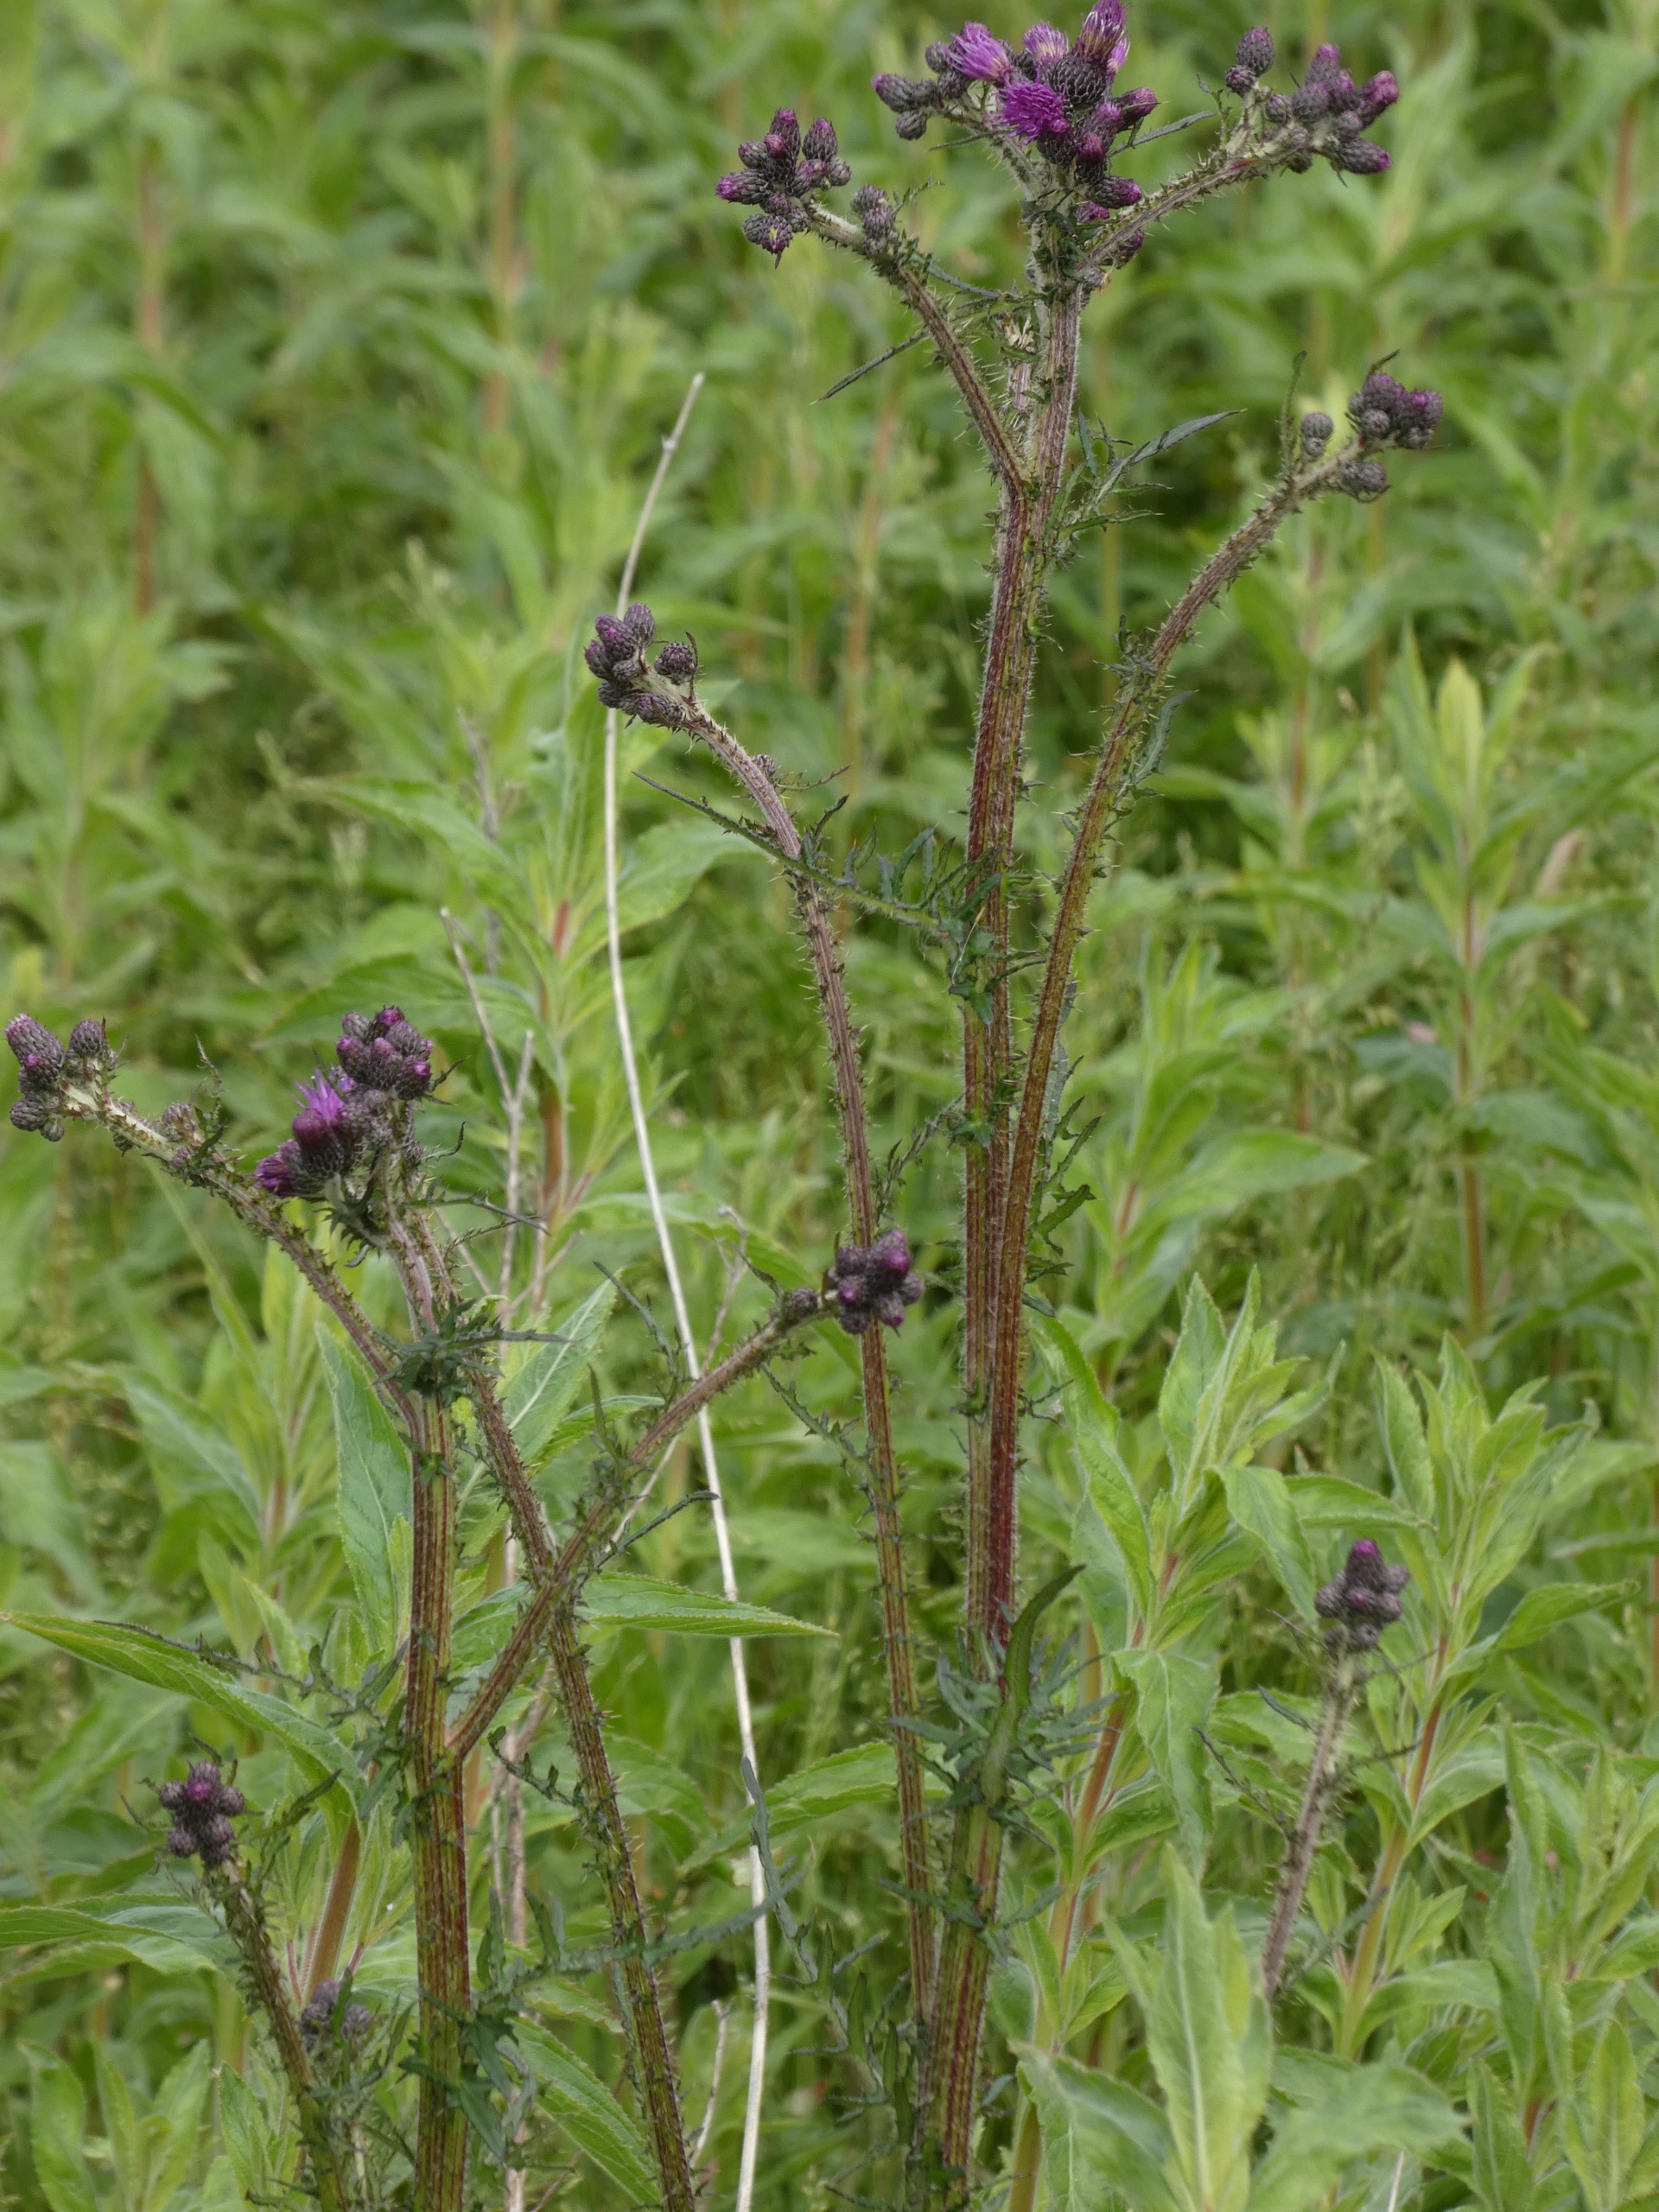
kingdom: Plantae
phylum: Tracheophyta
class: Magnoliopsida
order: Asterales
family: Asteraceae
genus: Cirsium
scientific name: Cirsium palustre
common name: Kær-tidsel
